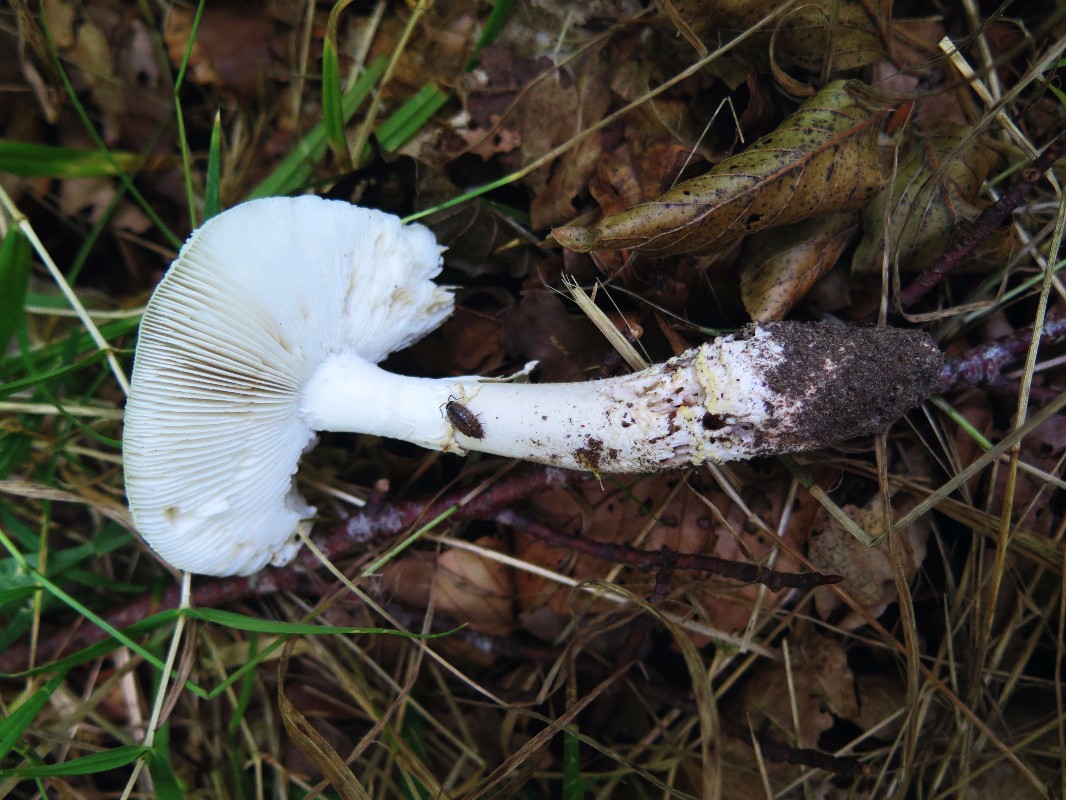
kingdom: Fungi
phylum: Basidiomycota
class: Agaricomycetes
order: Agaricales
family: Amanitaceae
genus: Amanita
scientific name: Amanita franchetii
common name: gulrandet fluesvamp
